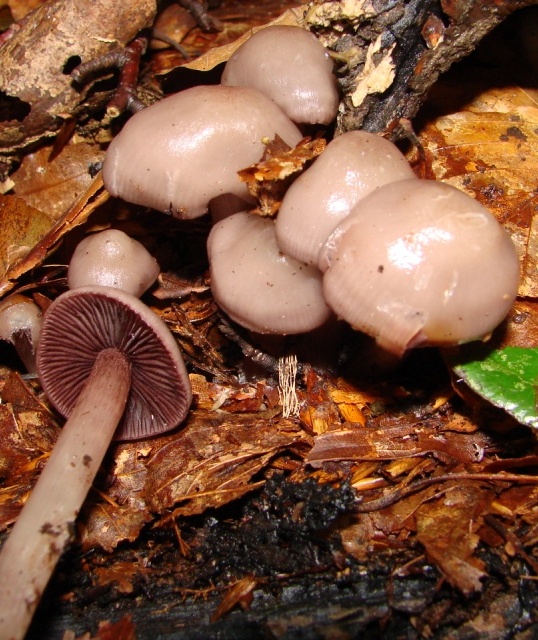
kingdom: Fungi
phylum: Basidiomycota
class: Agaricomycetes
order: Agaricales
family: Mycenaceae
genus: Mycena
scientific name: Mycena pelianthina
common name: mørkbladet huesvamp
